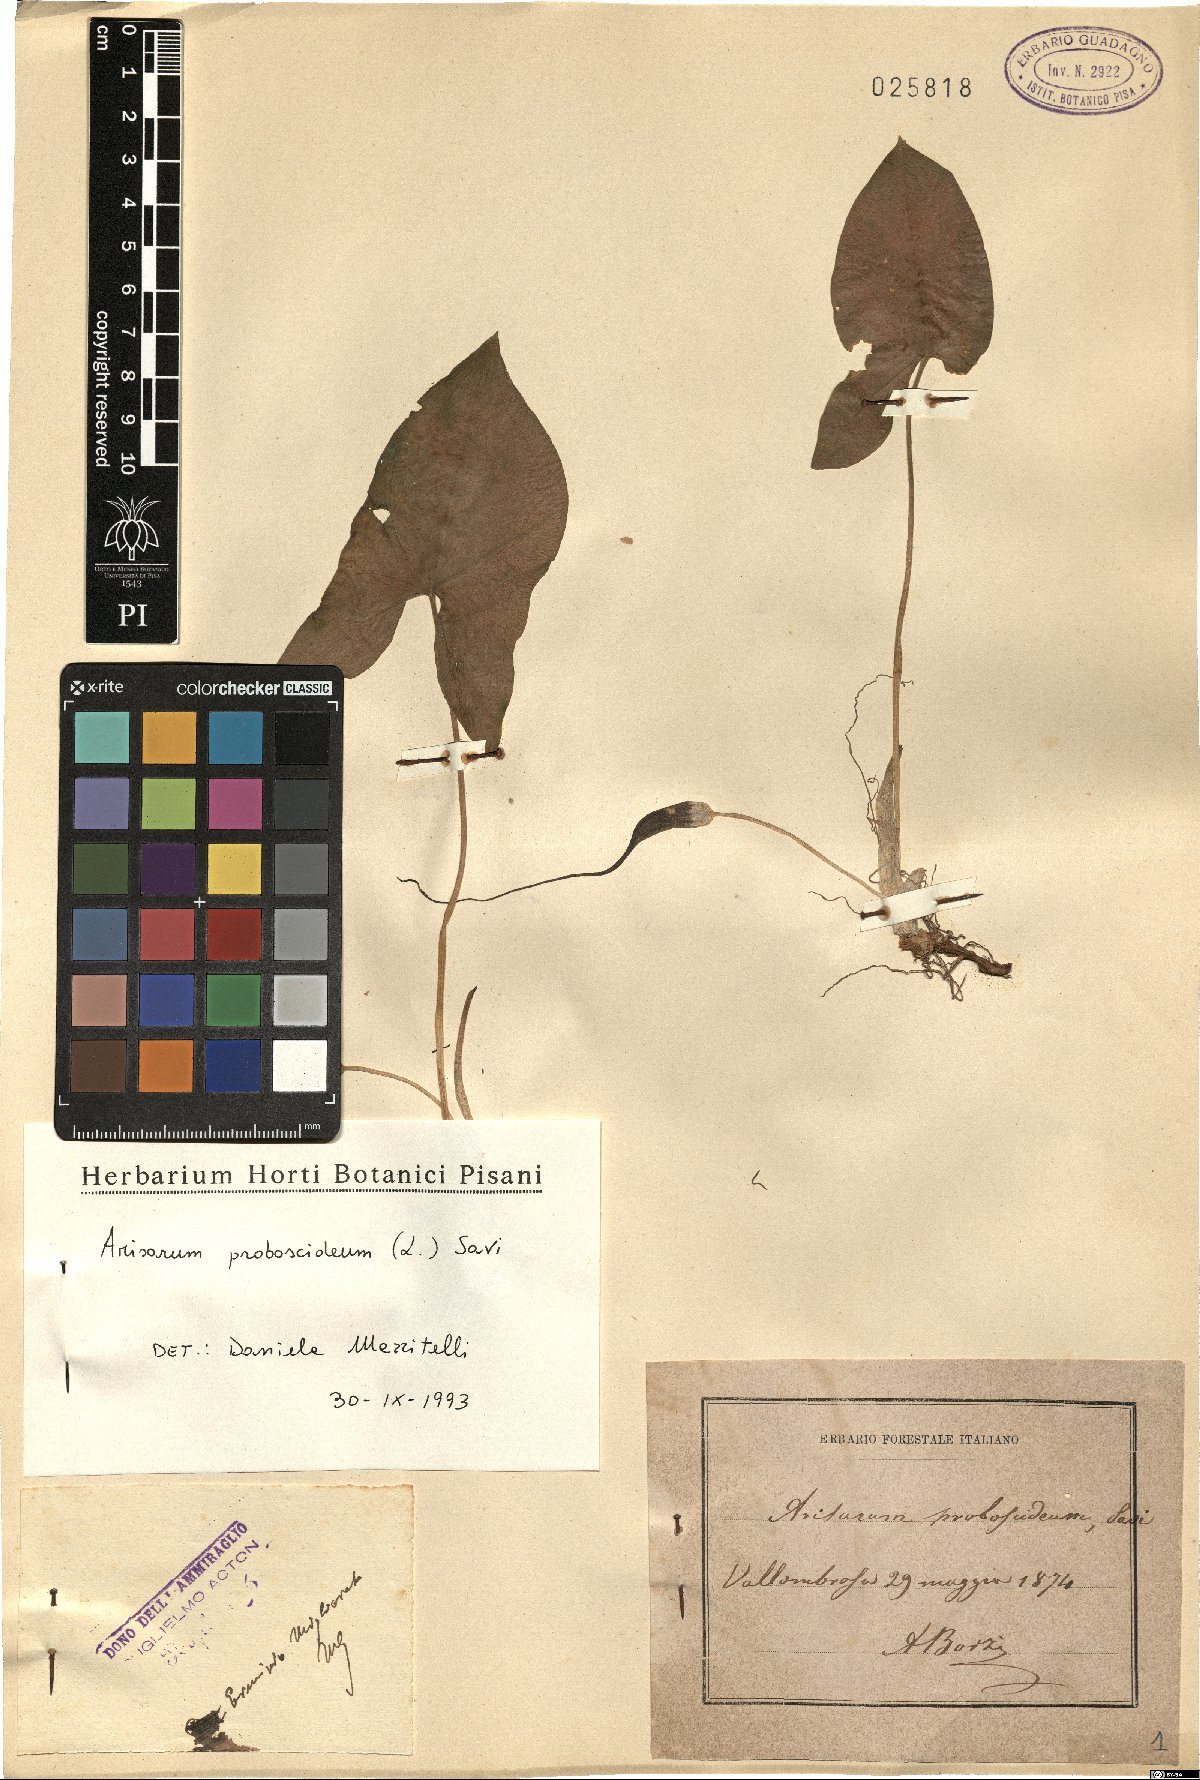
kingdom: Plantae
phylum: Tracheophyta
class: Liliopsida
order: Alismatales
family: Araceae
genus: Arisarum
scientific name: Arisarum proboscideum
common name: Mousetailplant
